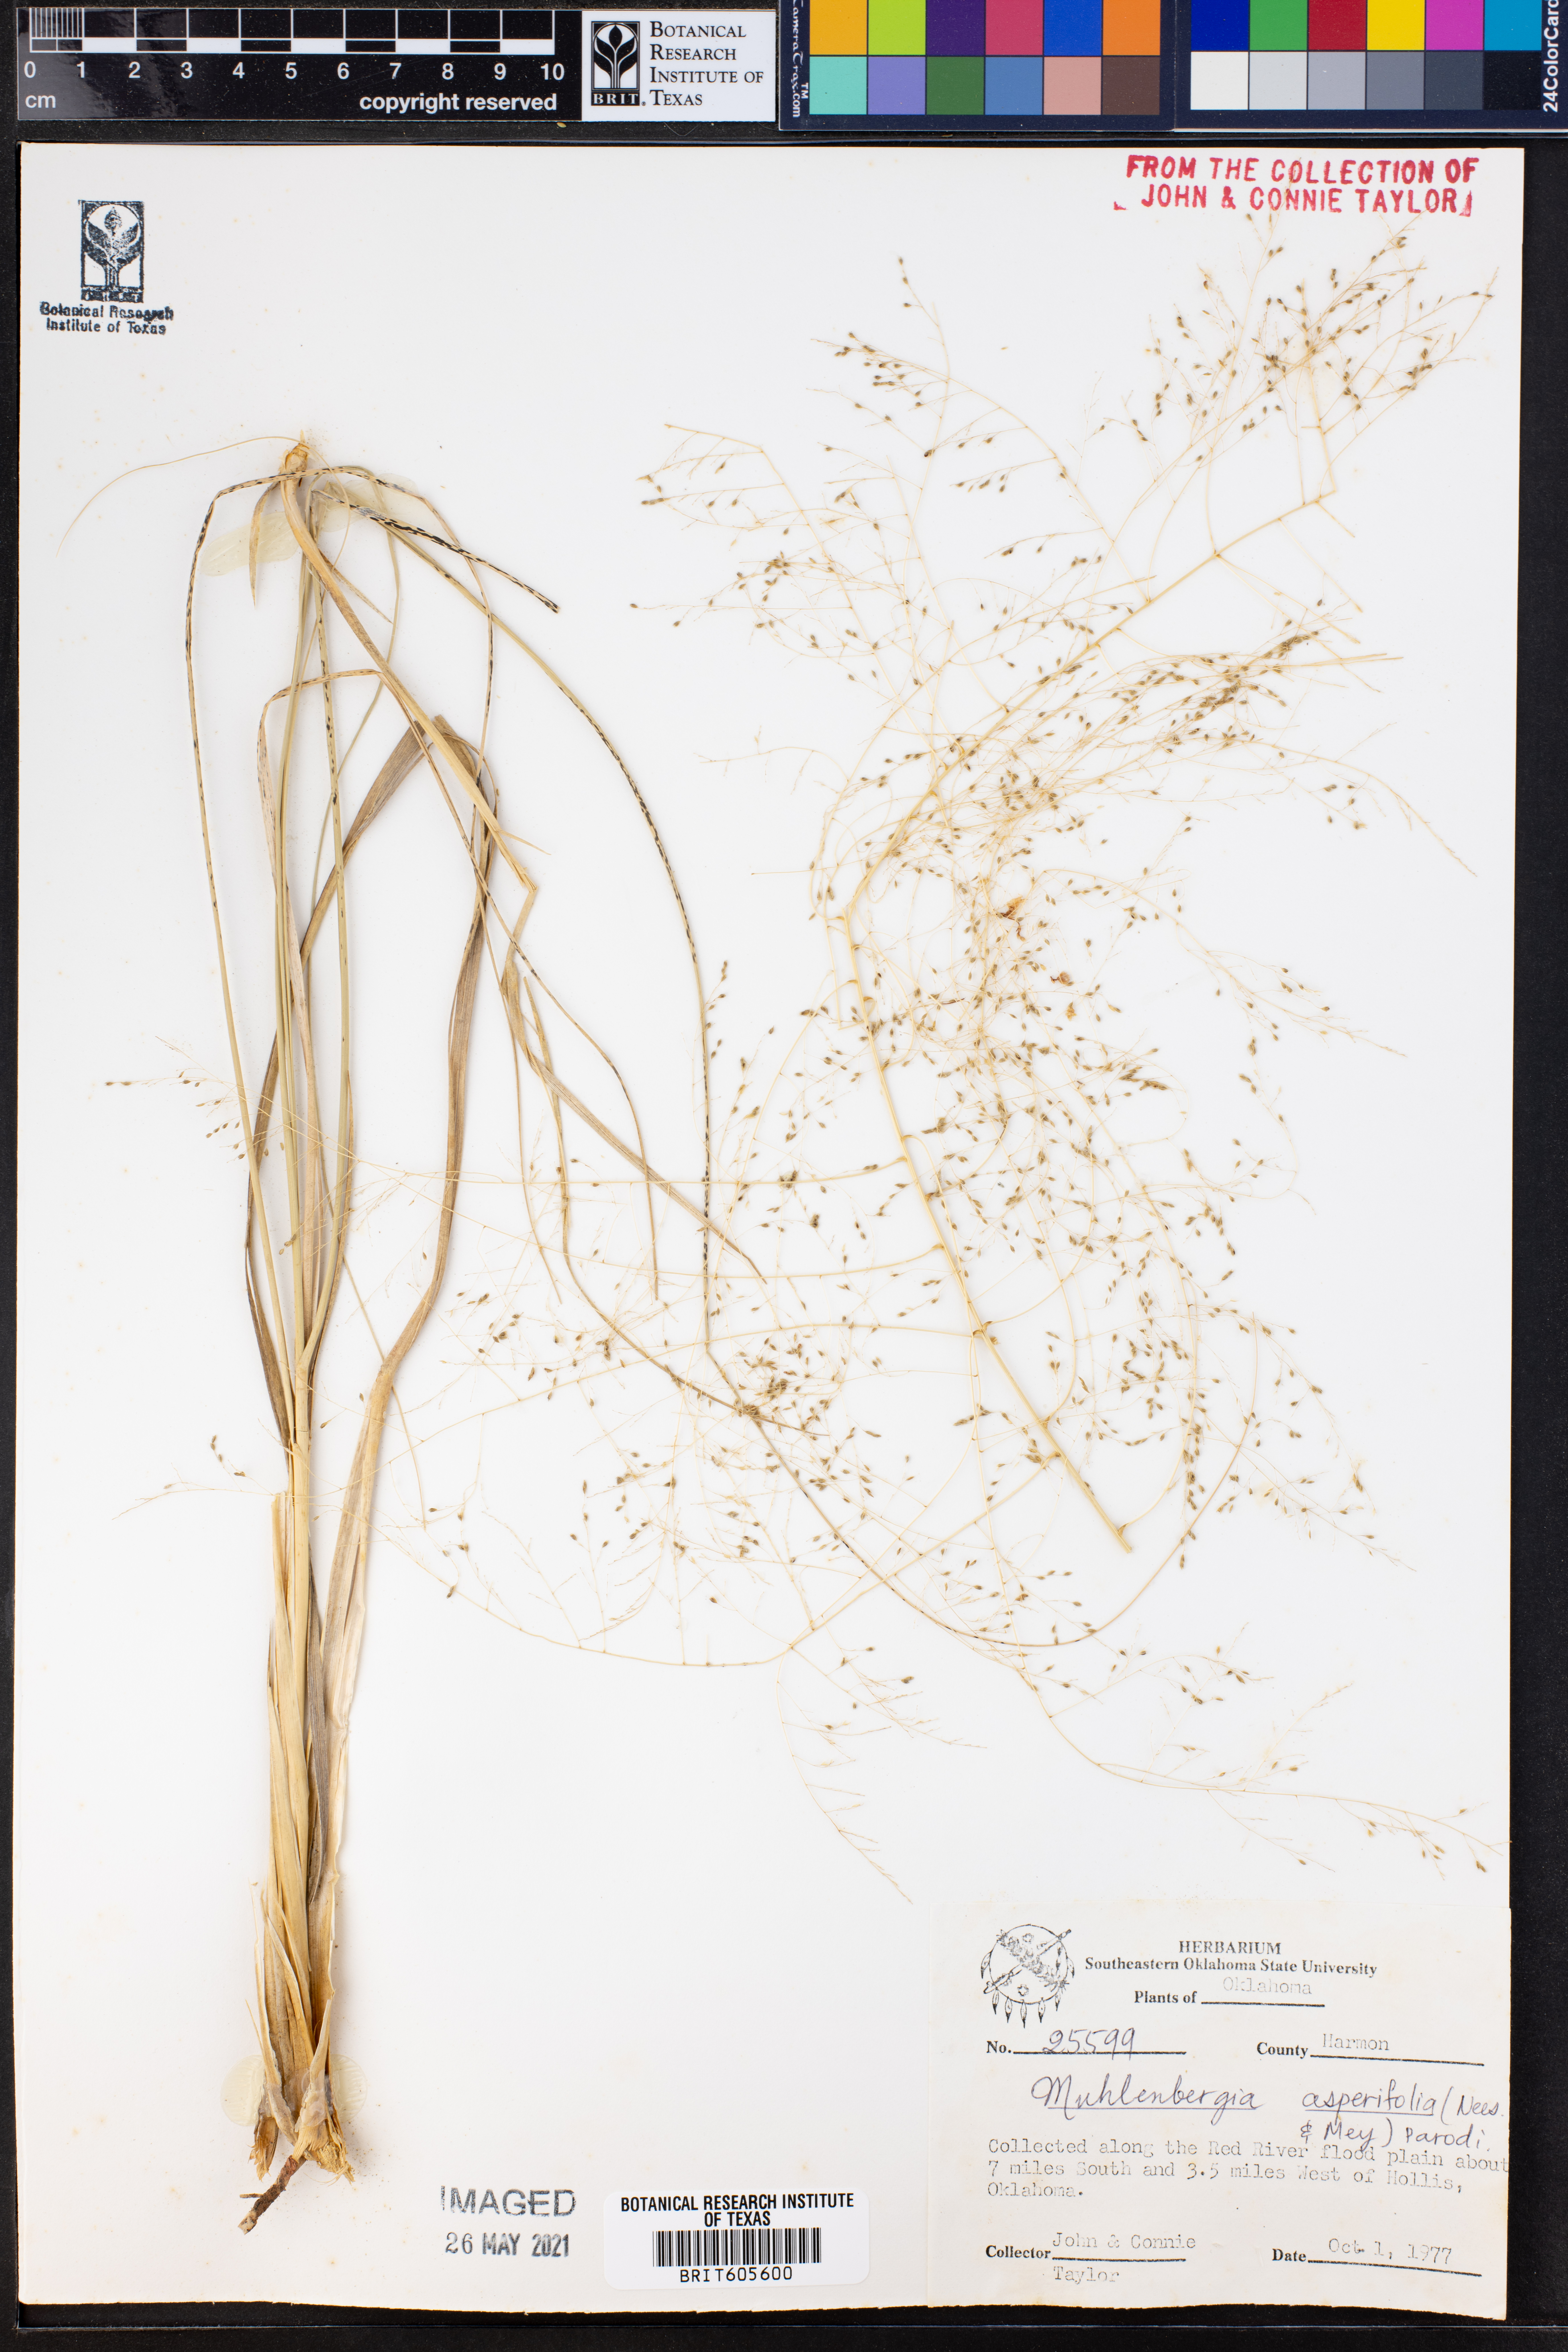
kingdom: Plantae
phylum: Tracheophyta
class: Liliopsida
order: Poales
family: Poaceae
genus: Muhlenbergia
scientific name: Muhlenbergia asperifolia
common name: Alkali muhly
